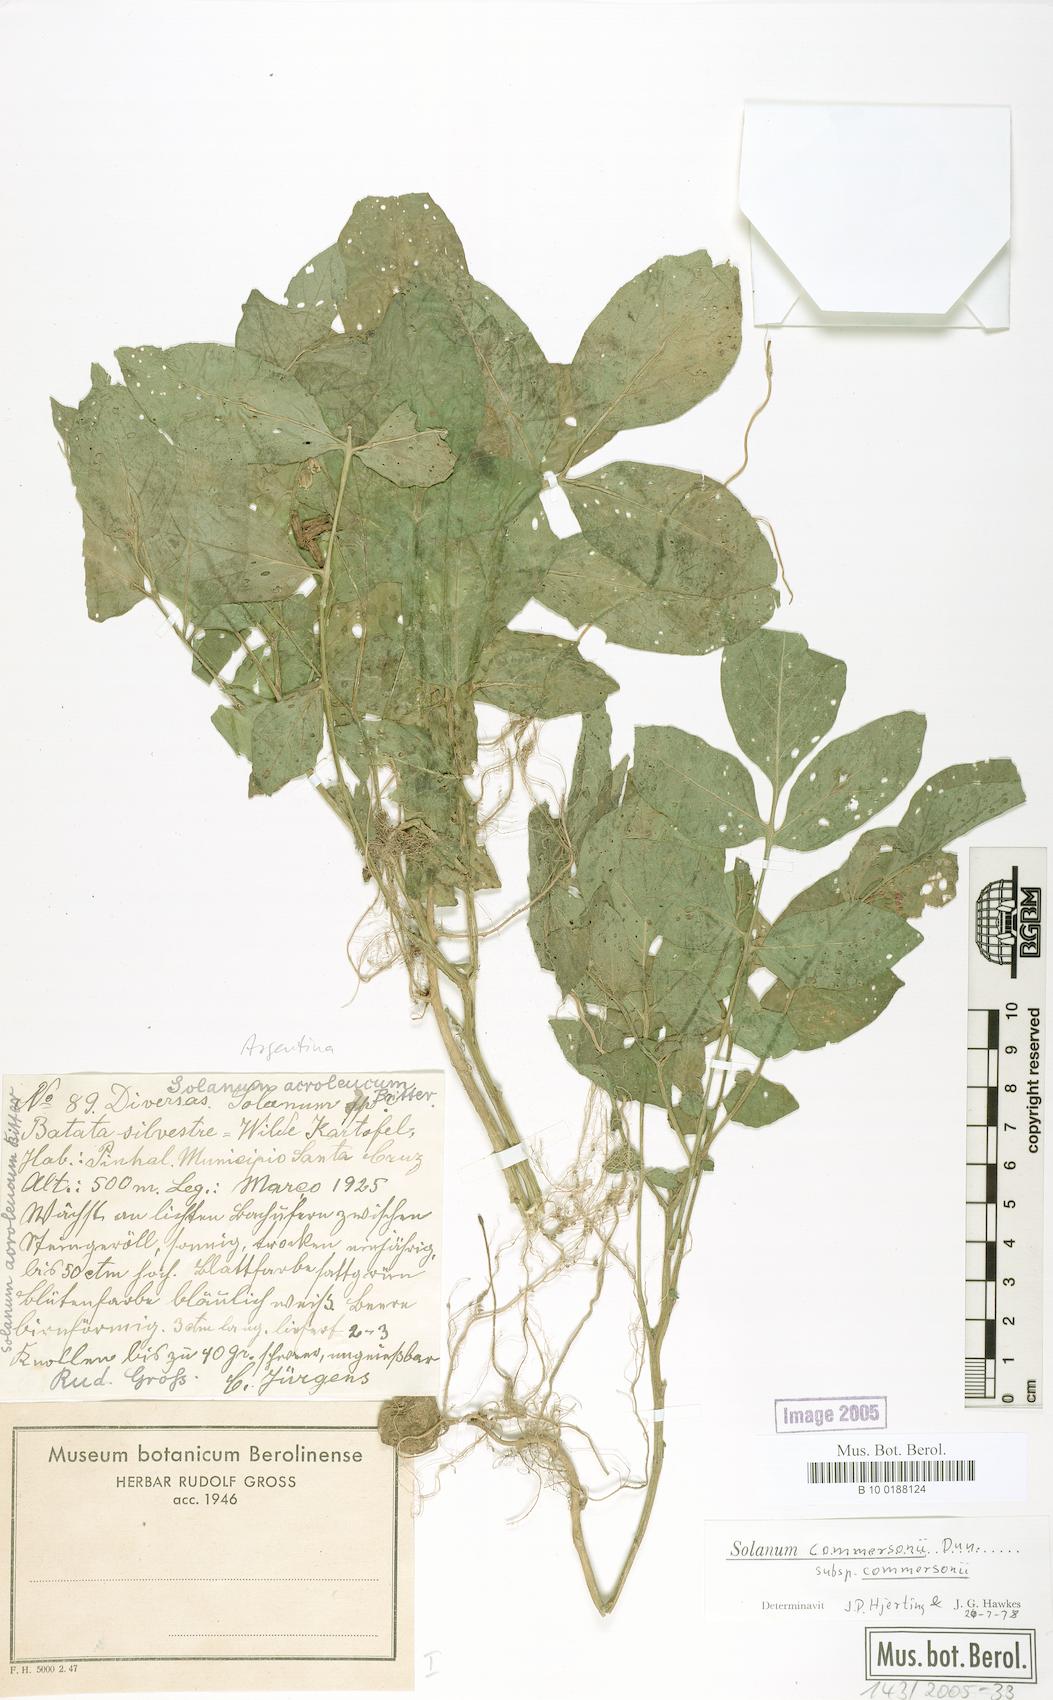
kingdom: Plantae
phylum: Tracheophyta
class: Magnoliopsida
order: Solanales
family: Solanaceae
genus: Solanum
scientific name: Solanum commersonii
